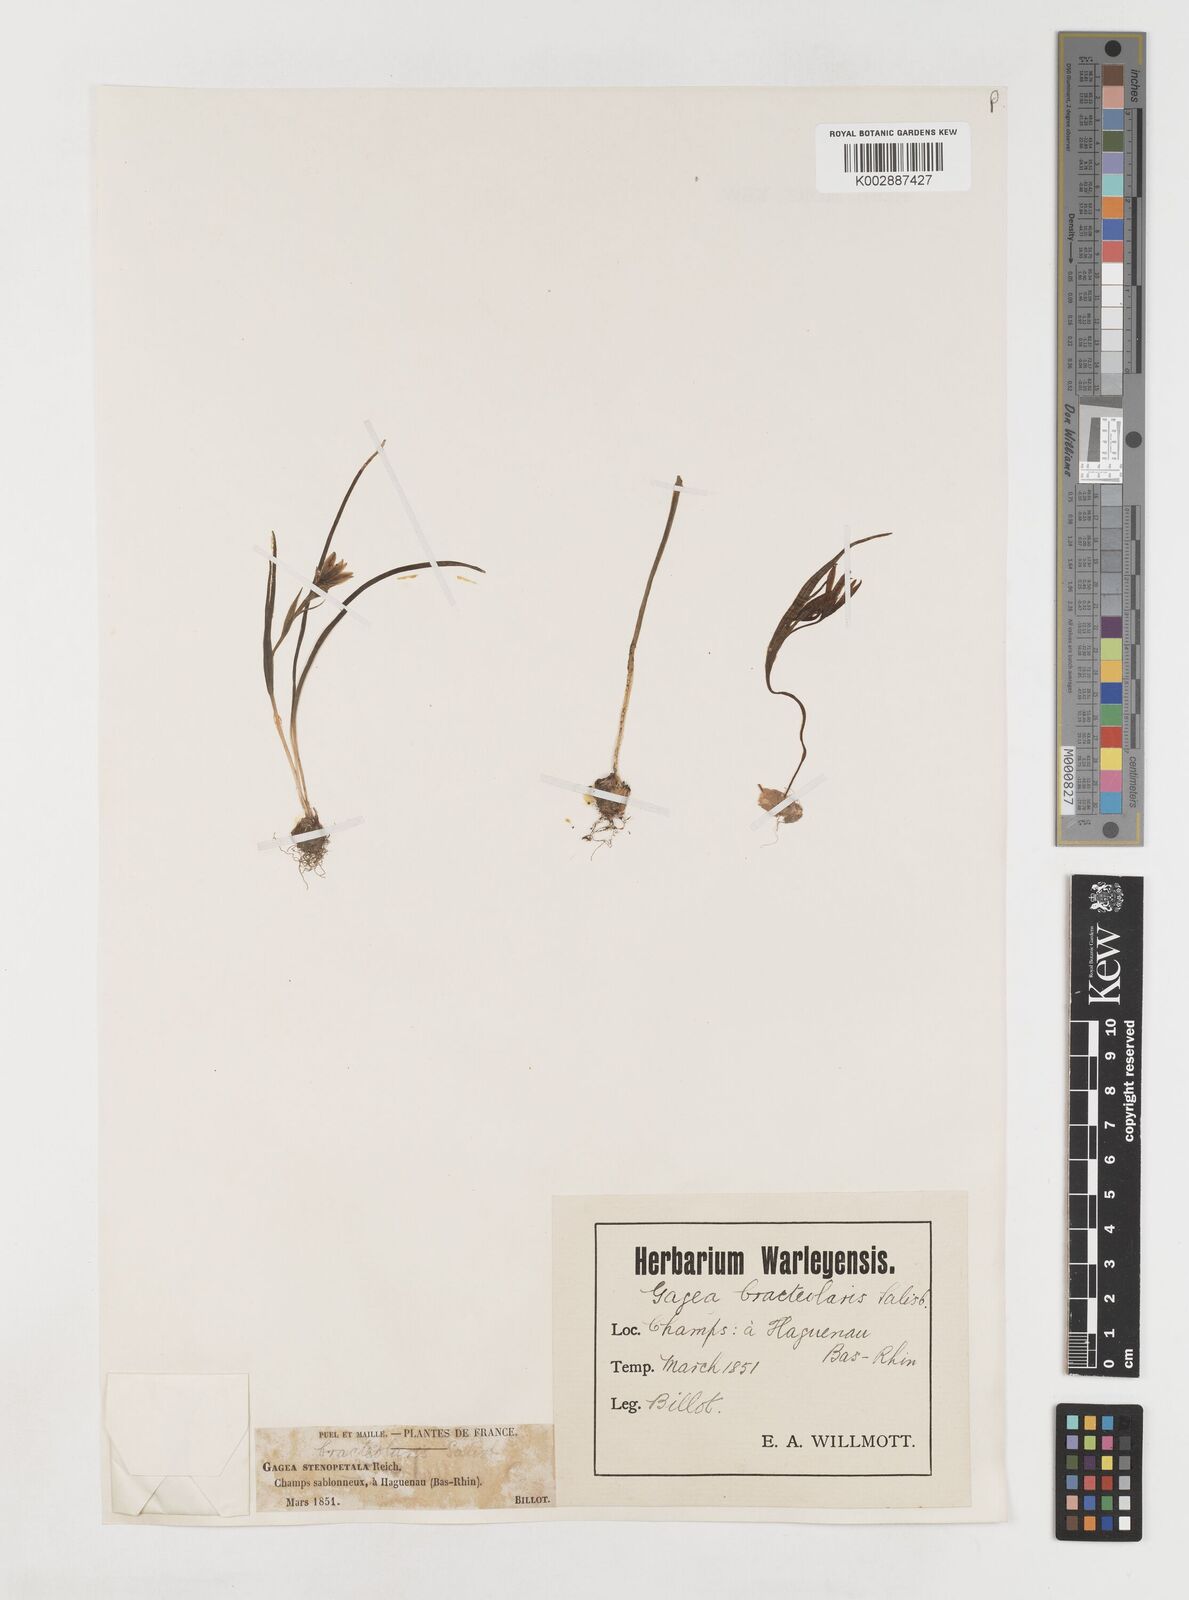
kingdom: Plantae
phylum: Tracheophyta
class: Liliopsida
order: Liliales
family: Liliaceae
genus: Gagea
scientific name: Gagea pratensis
